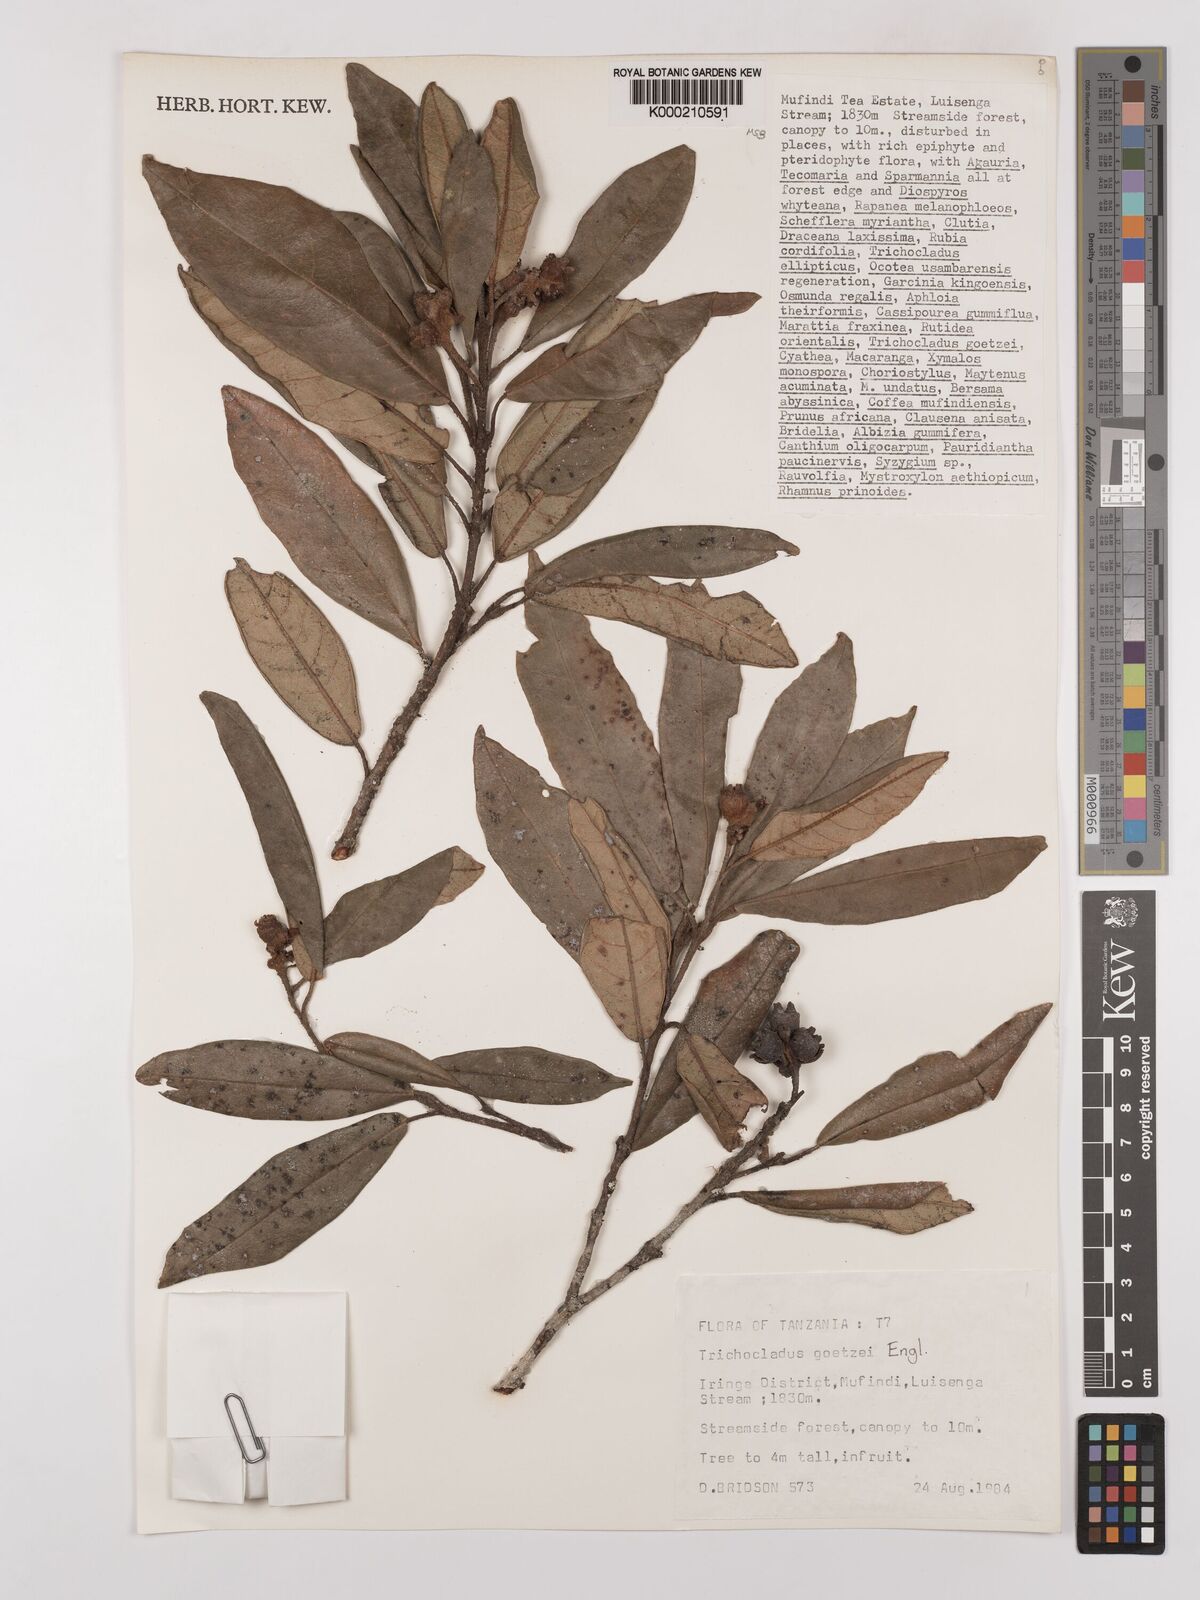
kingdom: Plantae
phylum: Tracheophyta
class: Magnoliopsida
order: Saxifragales
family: Hamamelidaceae
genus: Trichocladus
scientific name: Trichocladus goetzei
